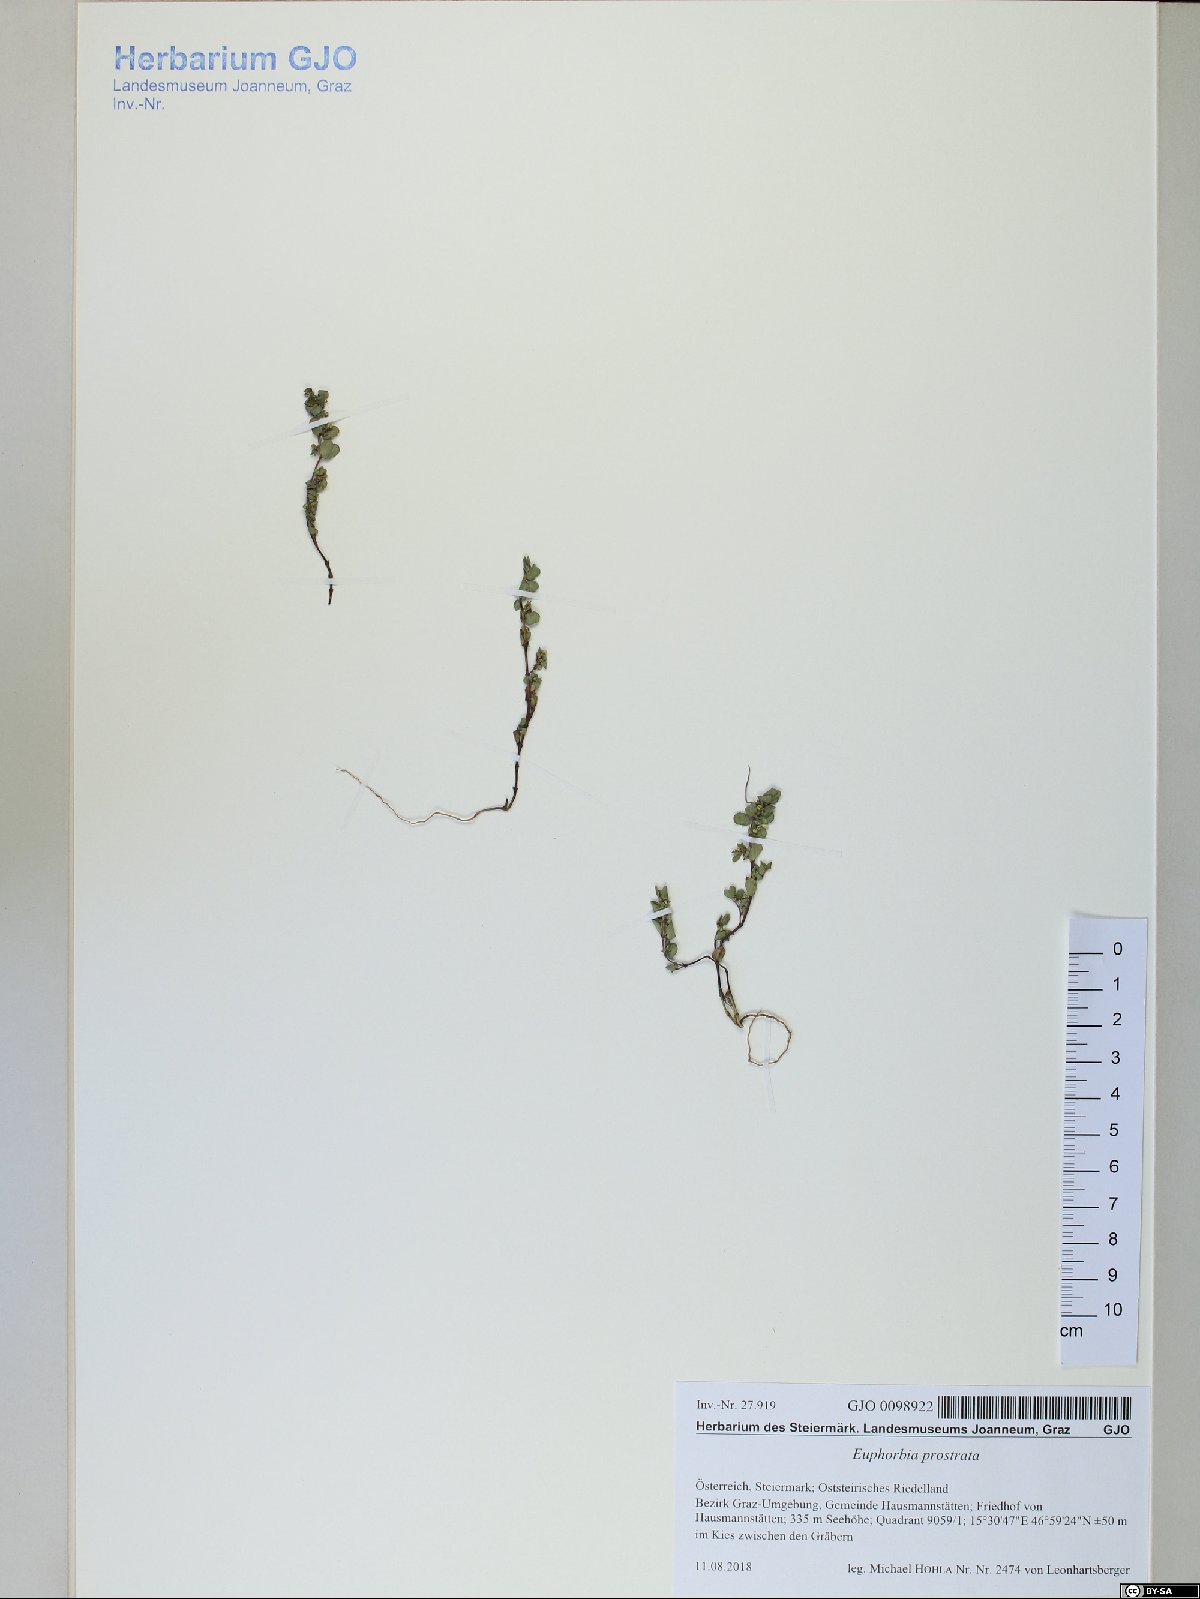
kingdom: Plantae
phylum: Tracheophyta
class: Magnoliopsida
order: Malpighiales
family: Euphorbiaceae
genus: Euphorbia
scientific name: Euphorbia prostrata
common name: Prostrate sandmat
